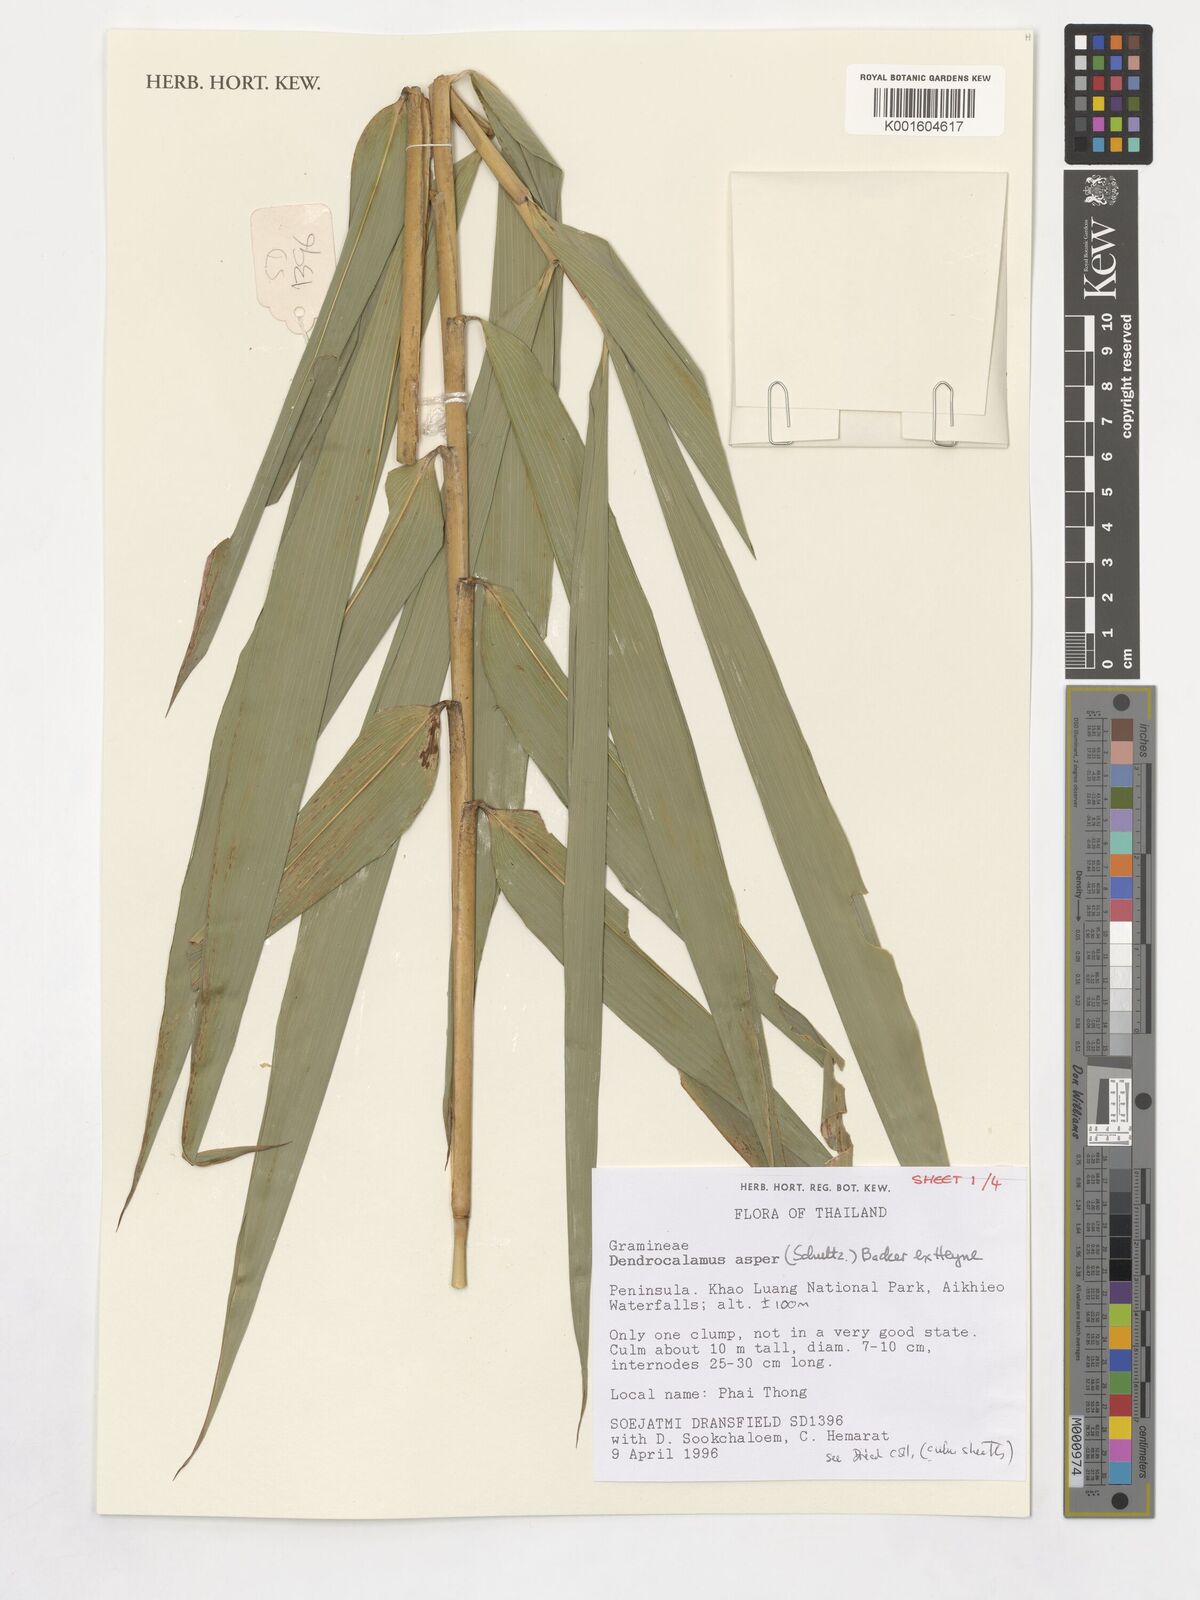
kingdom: Plantae
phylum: Tracheophyta
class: Liliopsida
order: Poales
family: Poaceae
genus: Dendrocalamus
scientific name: Dendrocalamus asper
